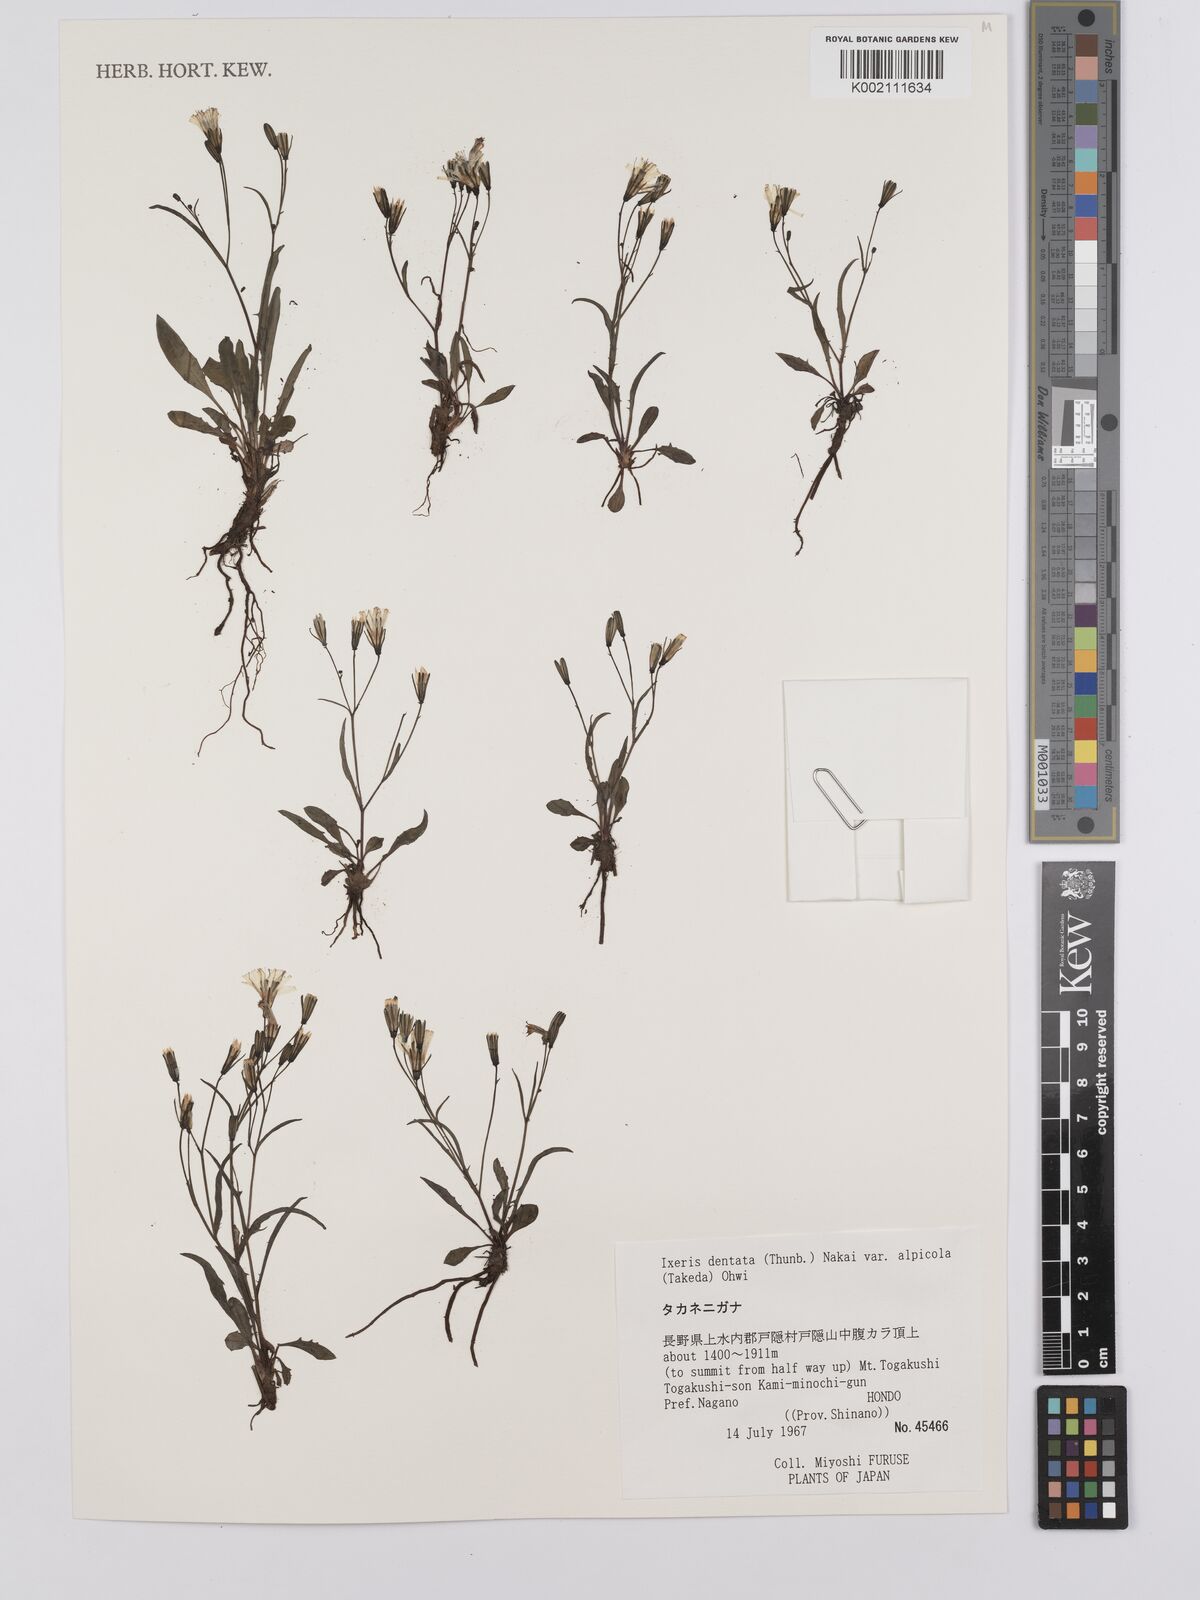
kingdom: Plantae
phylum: Tracheophyta
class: Magnoliopsida
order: Asterales
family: Asteraceae
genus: Ixeridium
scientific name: Ixeridium alpicola
